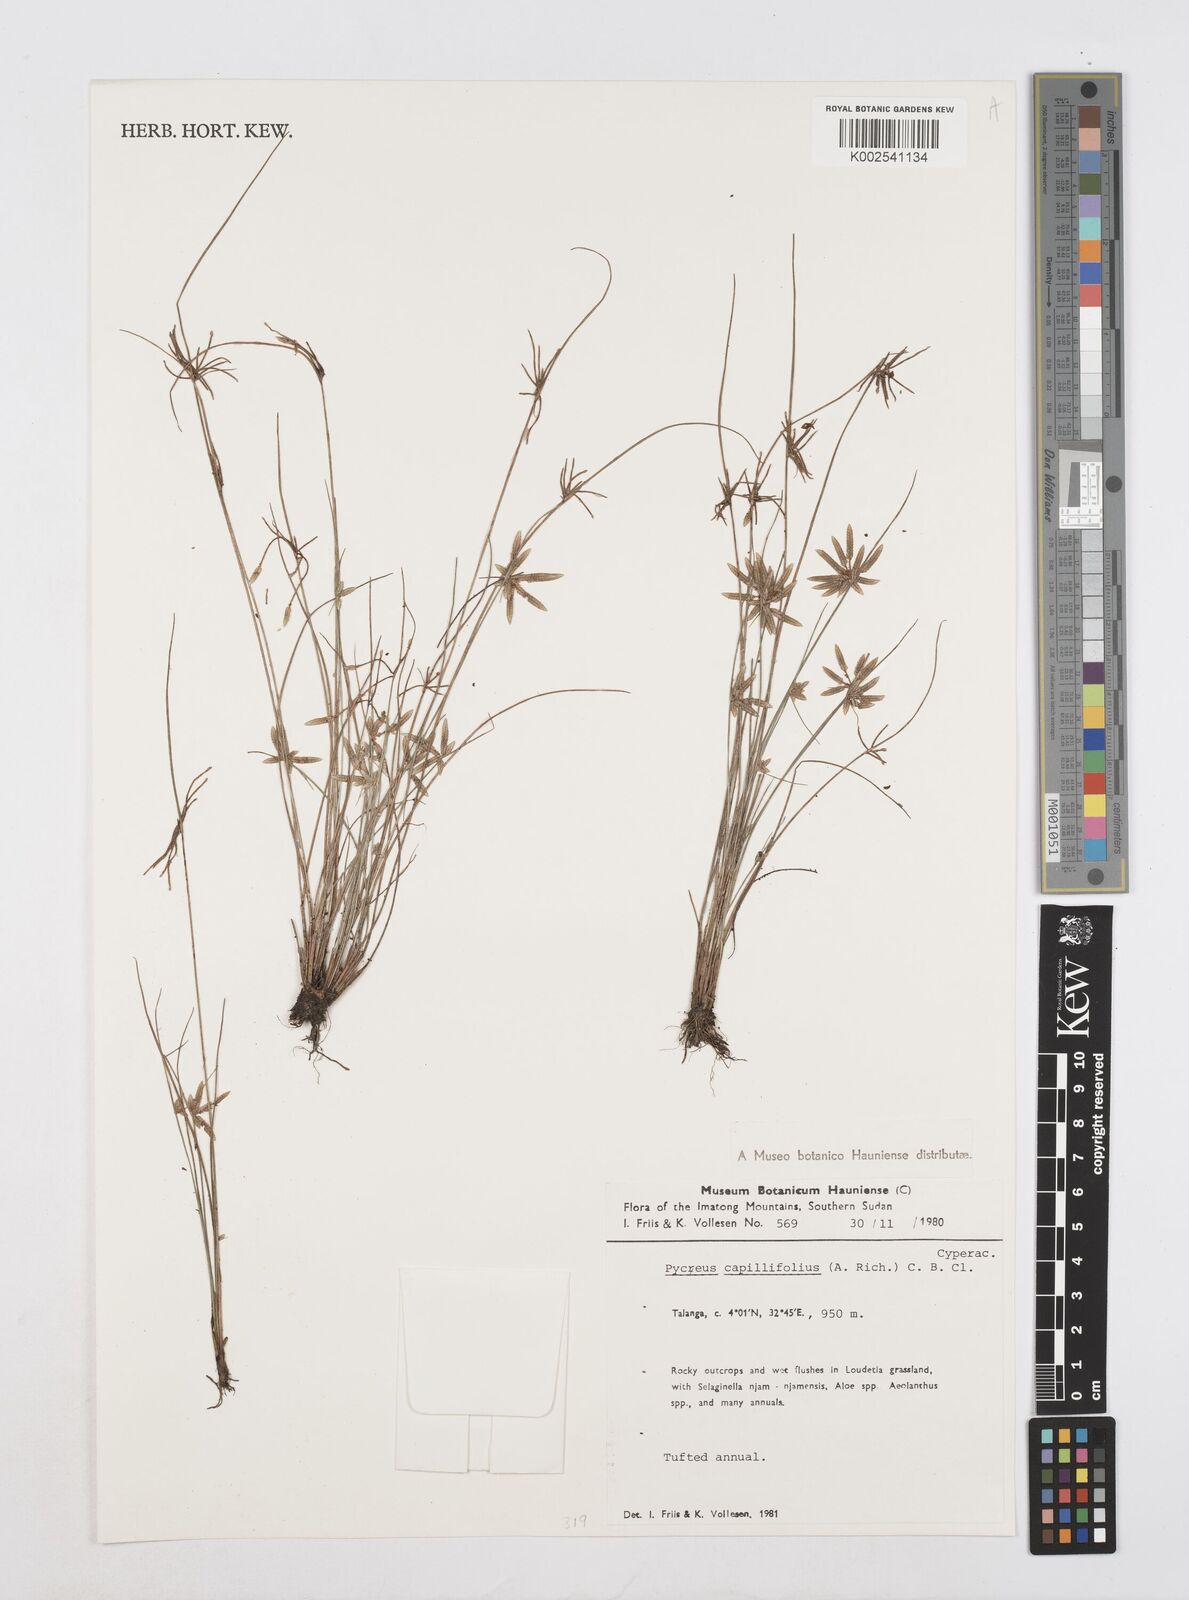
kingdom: Plantae
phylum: Tracheophyta
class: Liliopsida
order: Poales
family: Cyperaceae
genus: Cyperus
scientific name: Cyperus capillifolius
